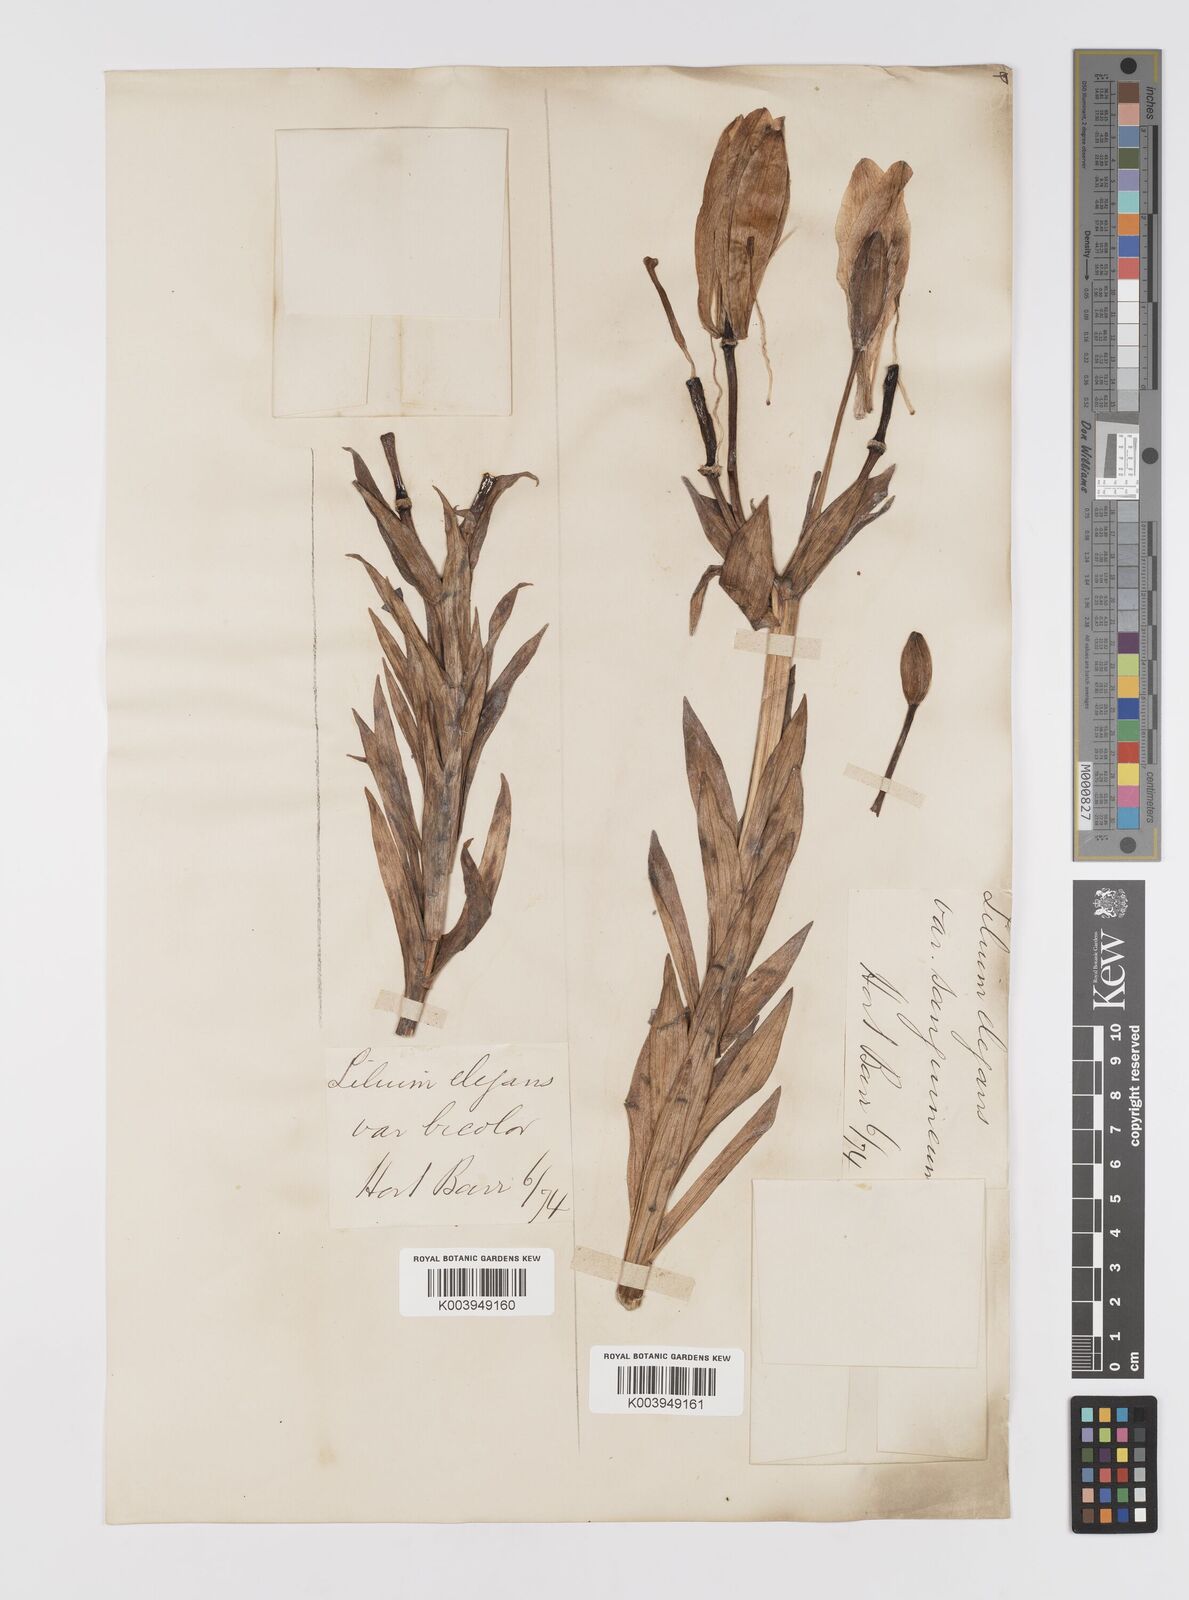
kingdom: Plantae
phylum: Tracheophyta
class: Liliopsida
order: Liliales
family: Liliaceae
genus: Lilium
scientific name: Lilium pensylvanicum
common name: Candlestick lily
